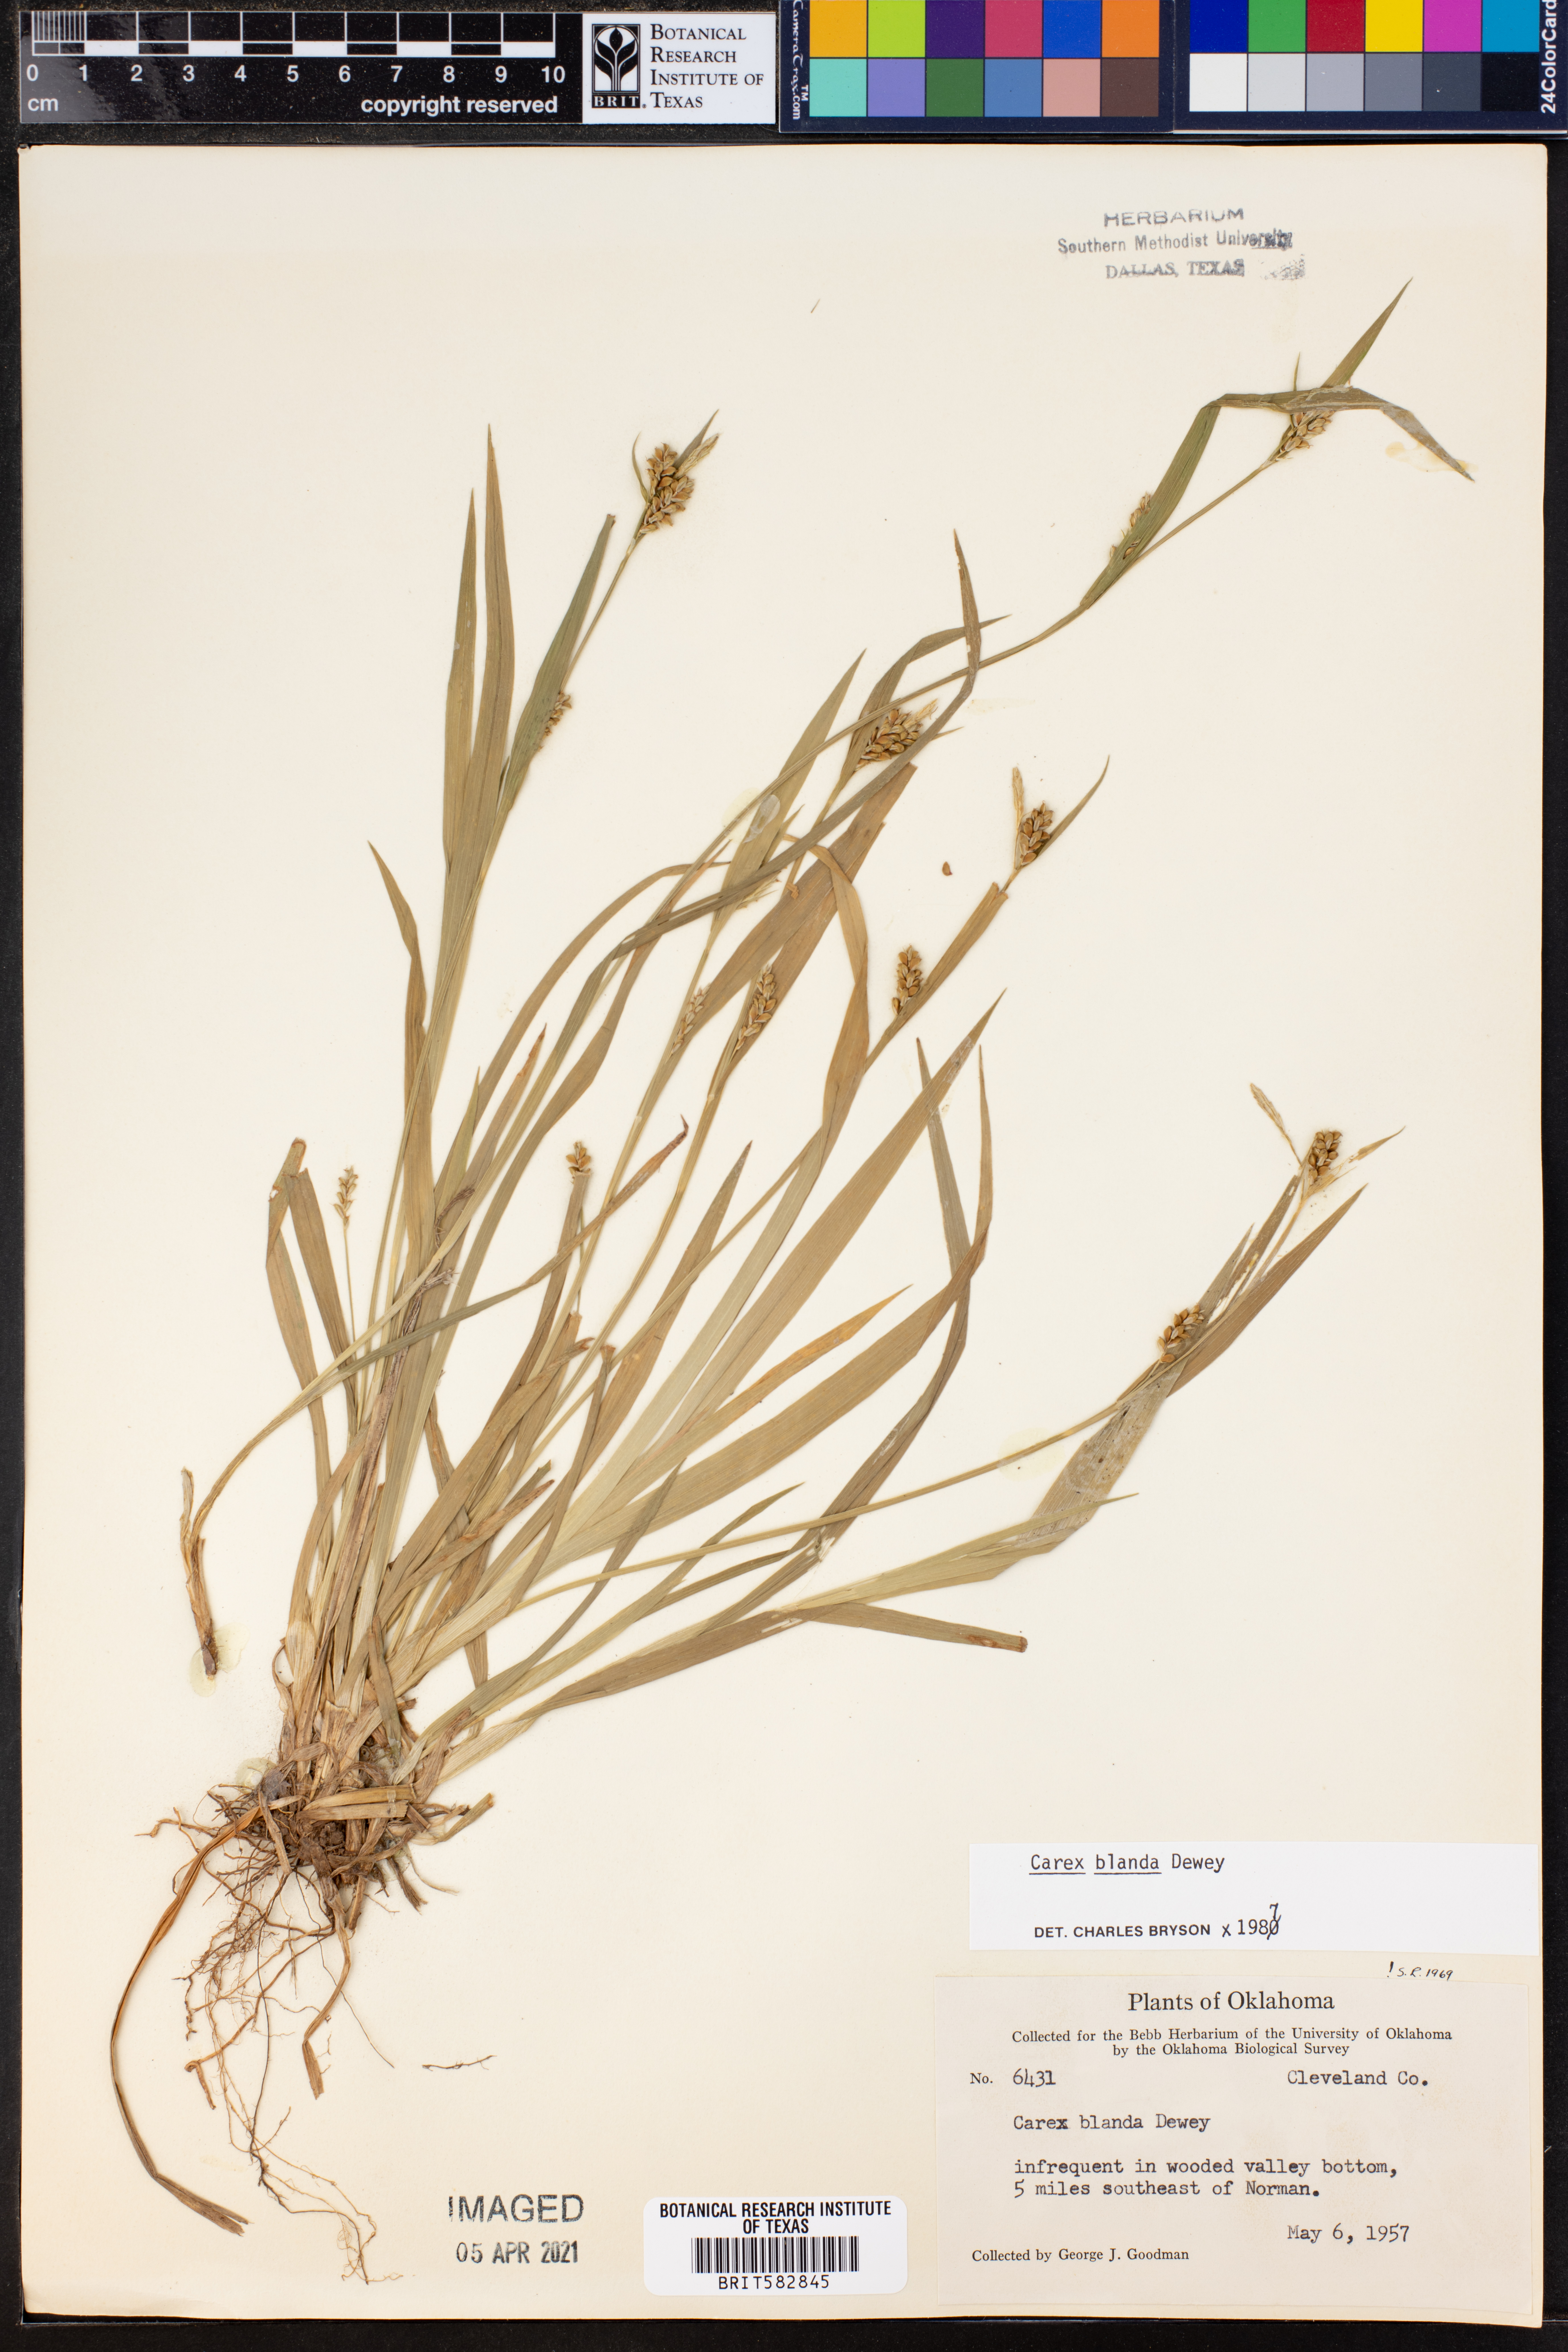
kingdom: Plantae
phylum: Tracheophyta
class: Liliopsida
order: Poales
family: Cyperaceae
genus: Carex
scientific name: Carex blanda
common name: Bland sedge
